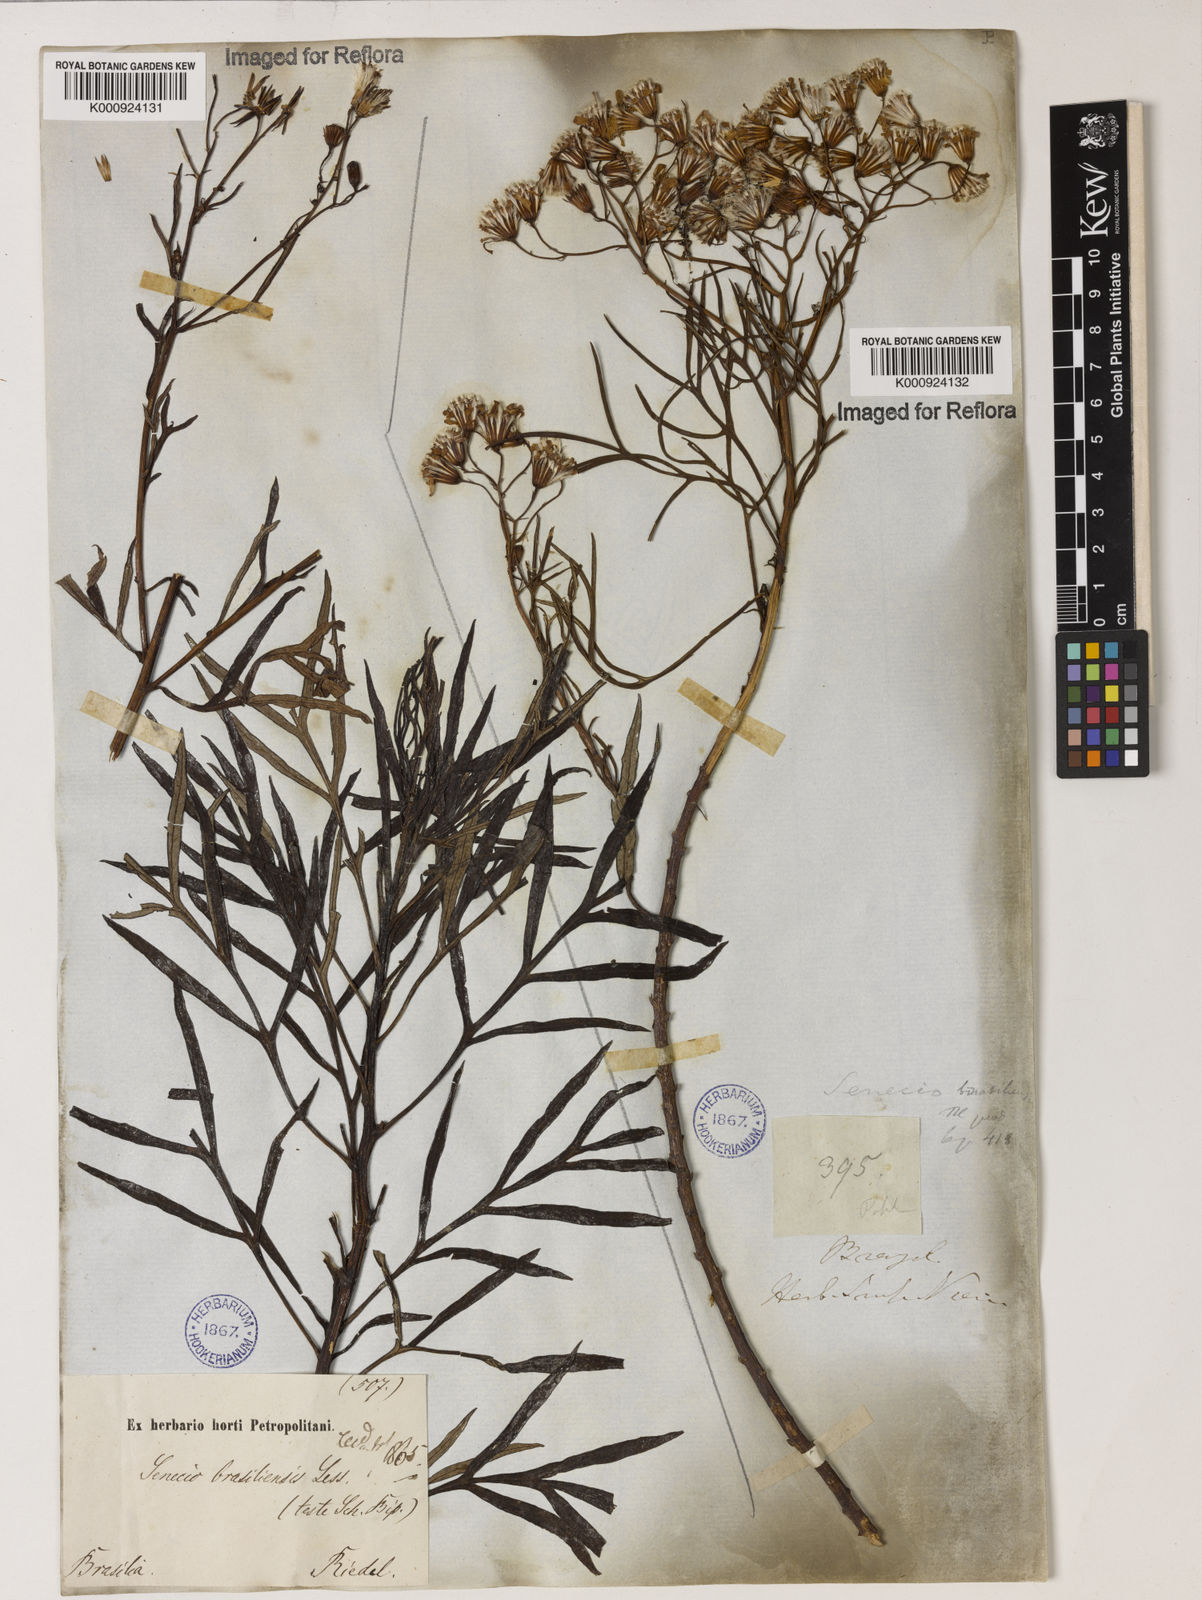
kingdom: Plantae
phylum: Tracheophyta
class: Magnoliopsida
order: Asterales
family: Asteraceae
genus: Senecio
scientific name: Senecio brasiliensis
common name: Hemp-leaf ragwort
